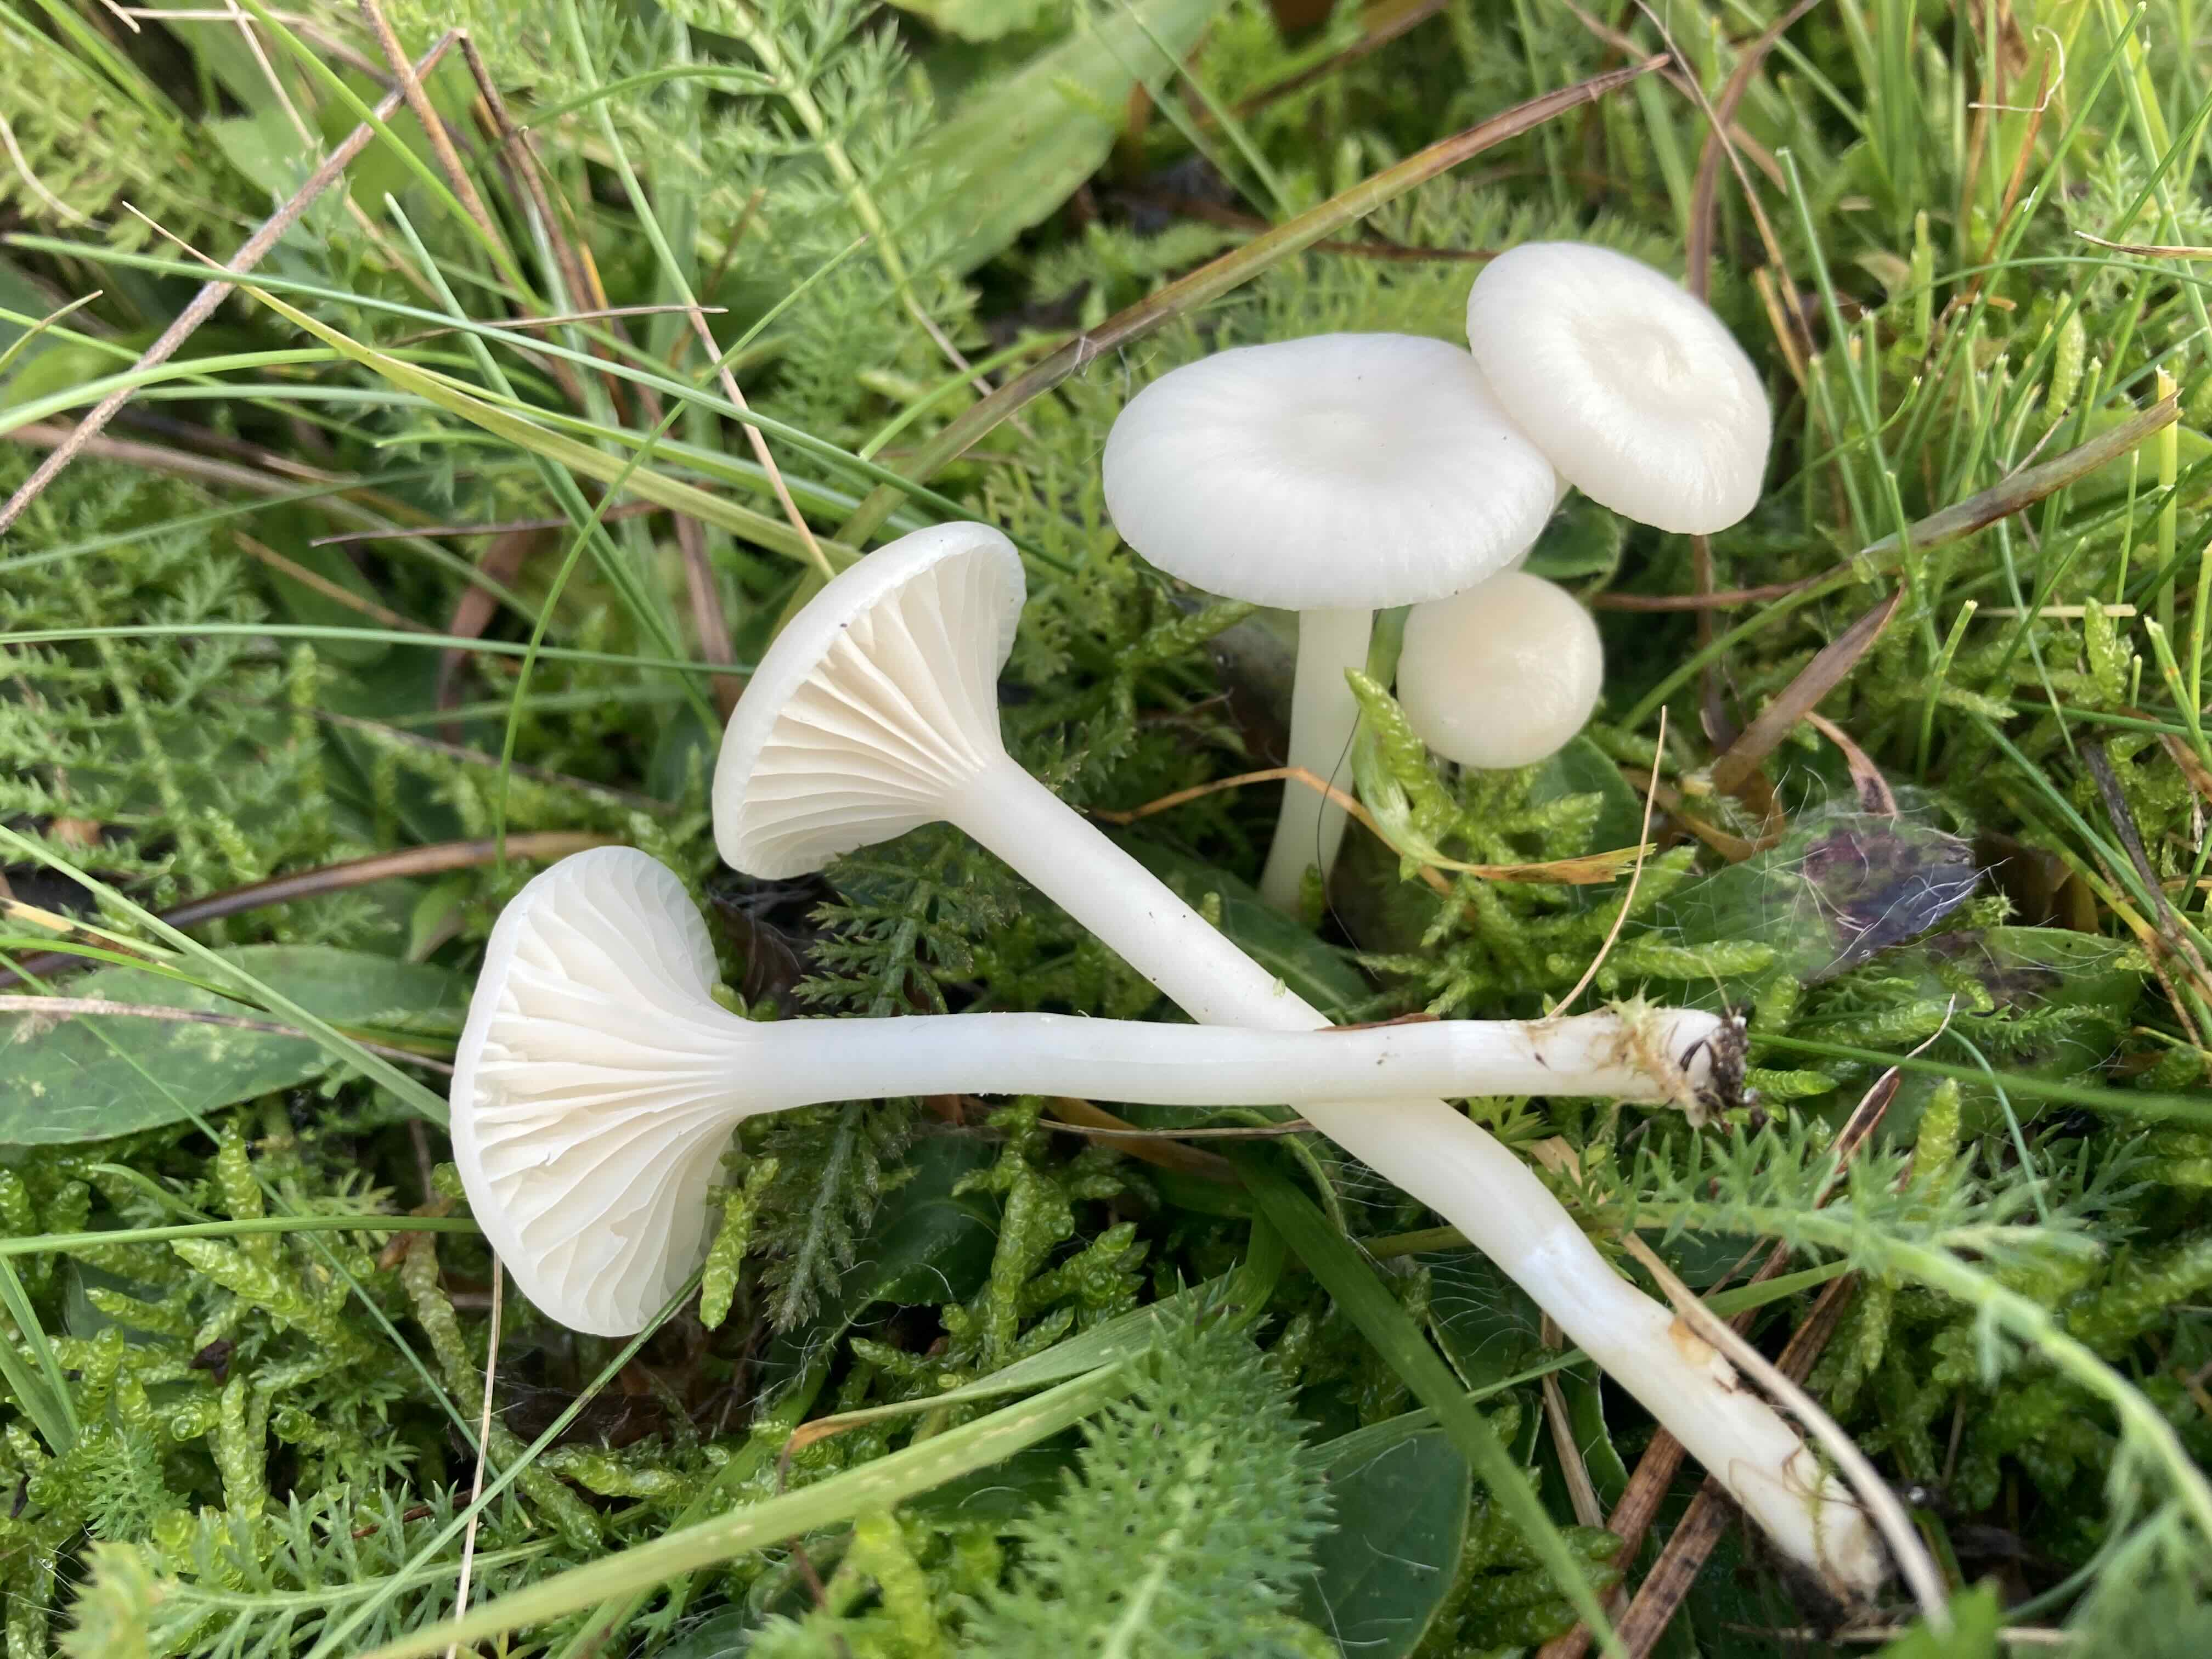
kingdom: Fungi
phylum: Basidiomycota
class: Agaricomycetes
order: Agaricales
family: Hygrophoraceae
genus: Cuphophyllus
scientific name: Cuphophyllus virgineus
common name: snehvid vokshat
